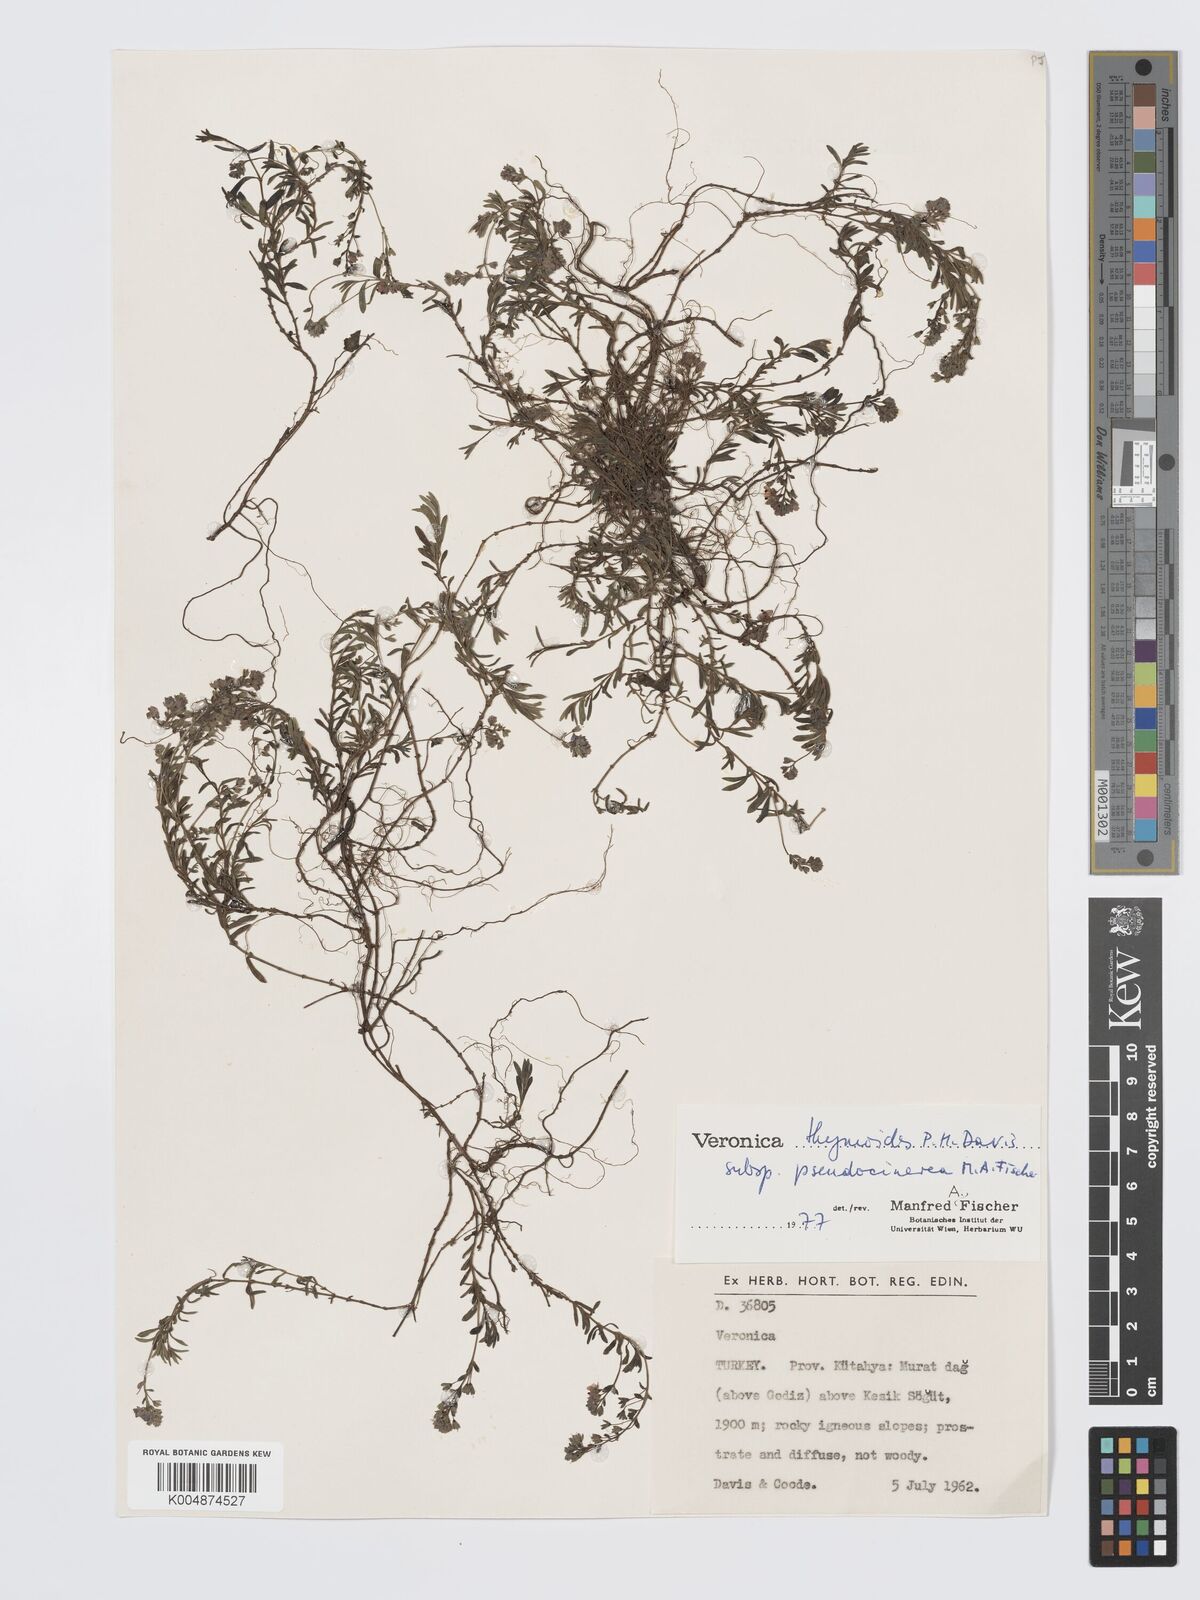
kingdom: Plantae
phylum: Tracheophyta
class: Magnoliopsida
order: Lamiales
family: Plantaginaceae
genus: Veronica
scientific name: Veronica thymoides
